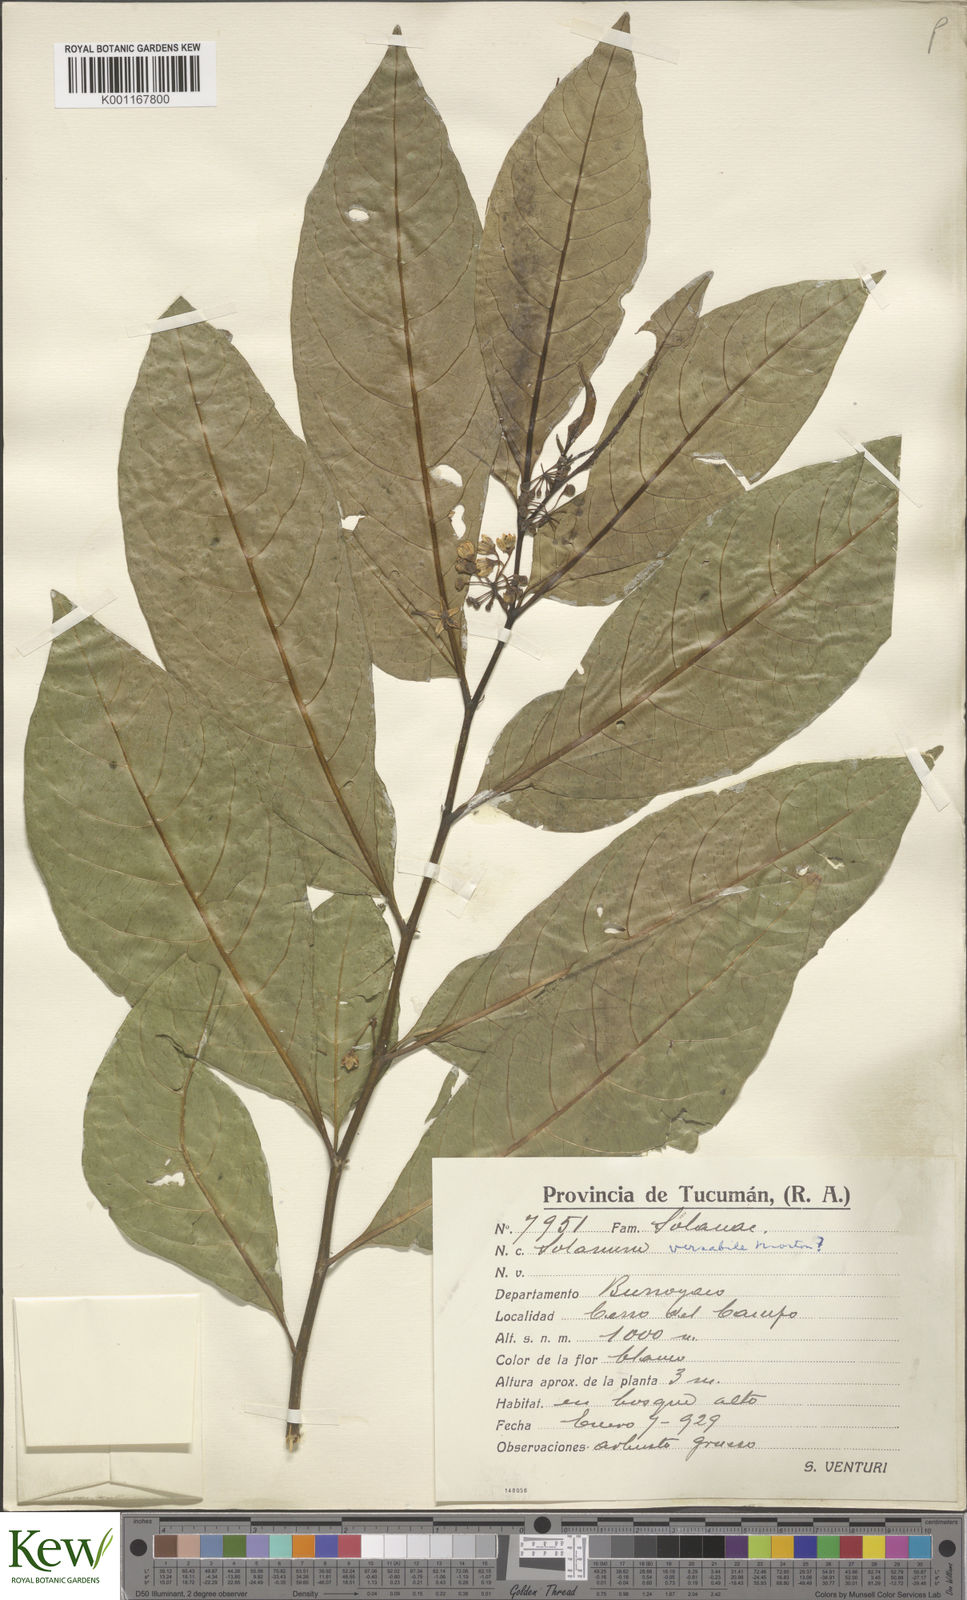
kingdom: Plantae
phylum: Tracheophyta
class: Magnoliopsida
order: Solanales
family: Solanaceae
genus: Solanum
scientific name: Solanum symmetricum
